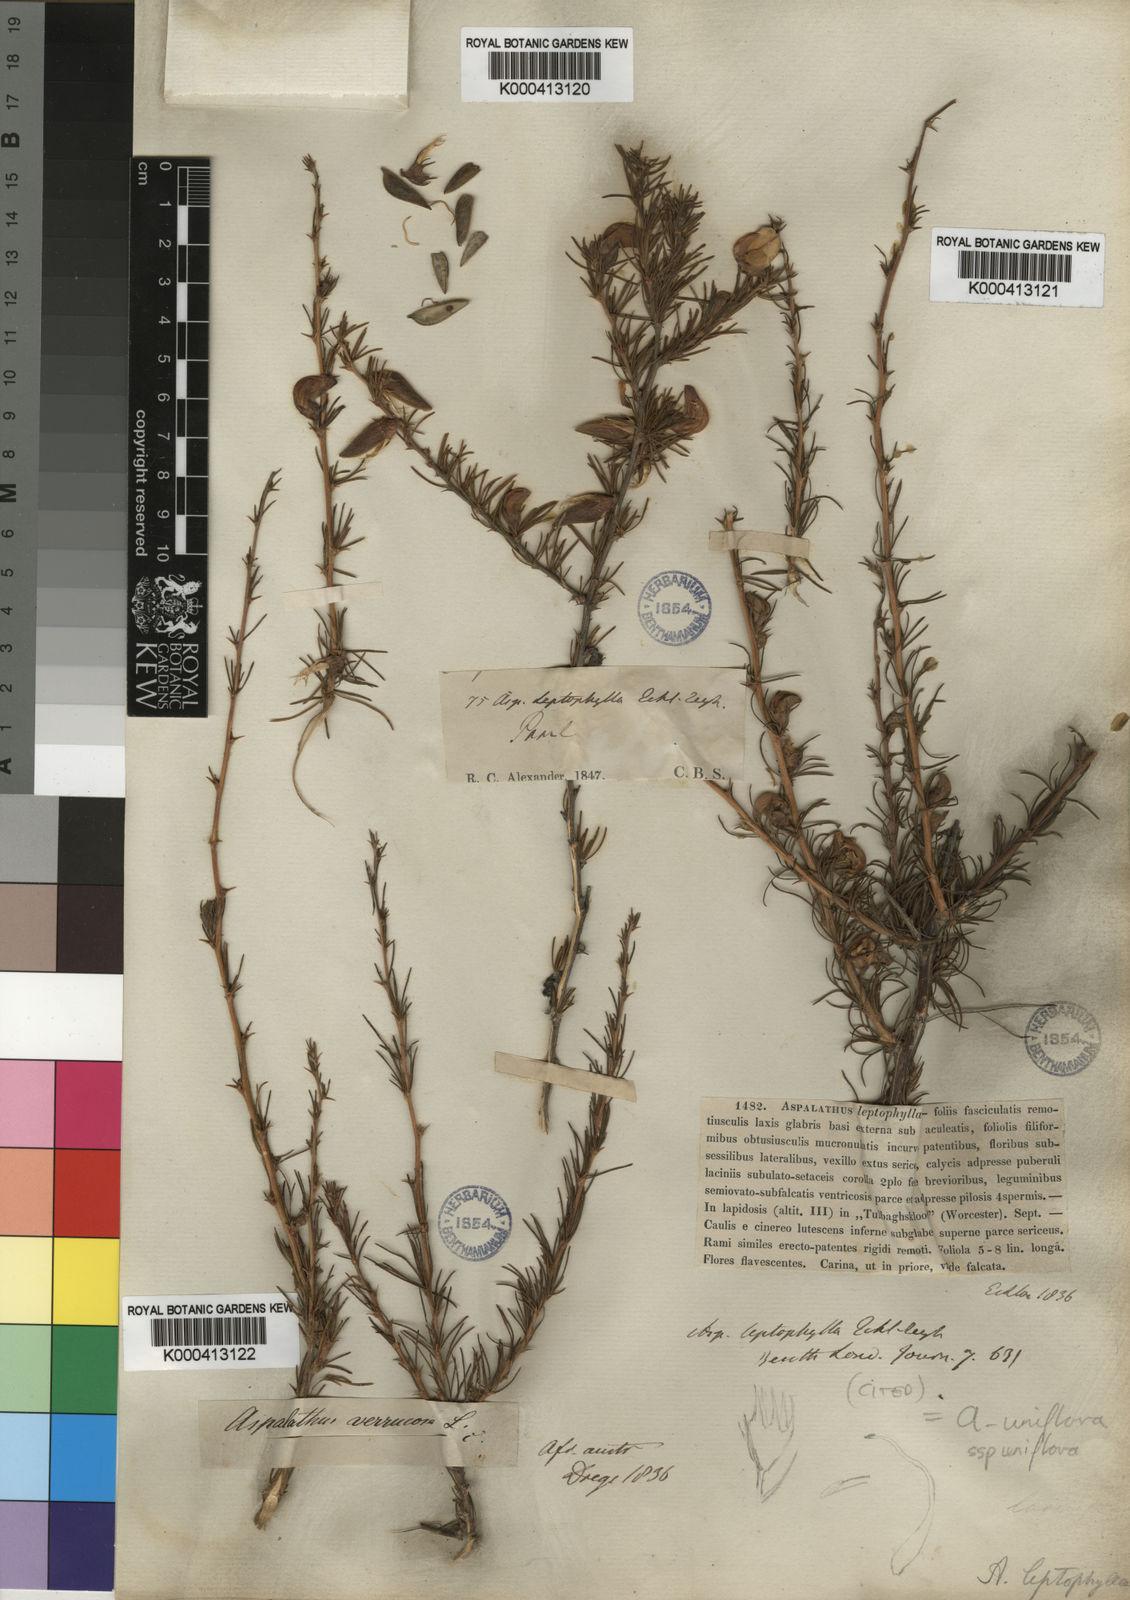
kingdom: Plantae
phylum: Tracheophyta
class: Magnoliopsida
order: Fabales
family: Fabaceae
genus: Aspalathus
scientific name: Aspalathus uniflora
